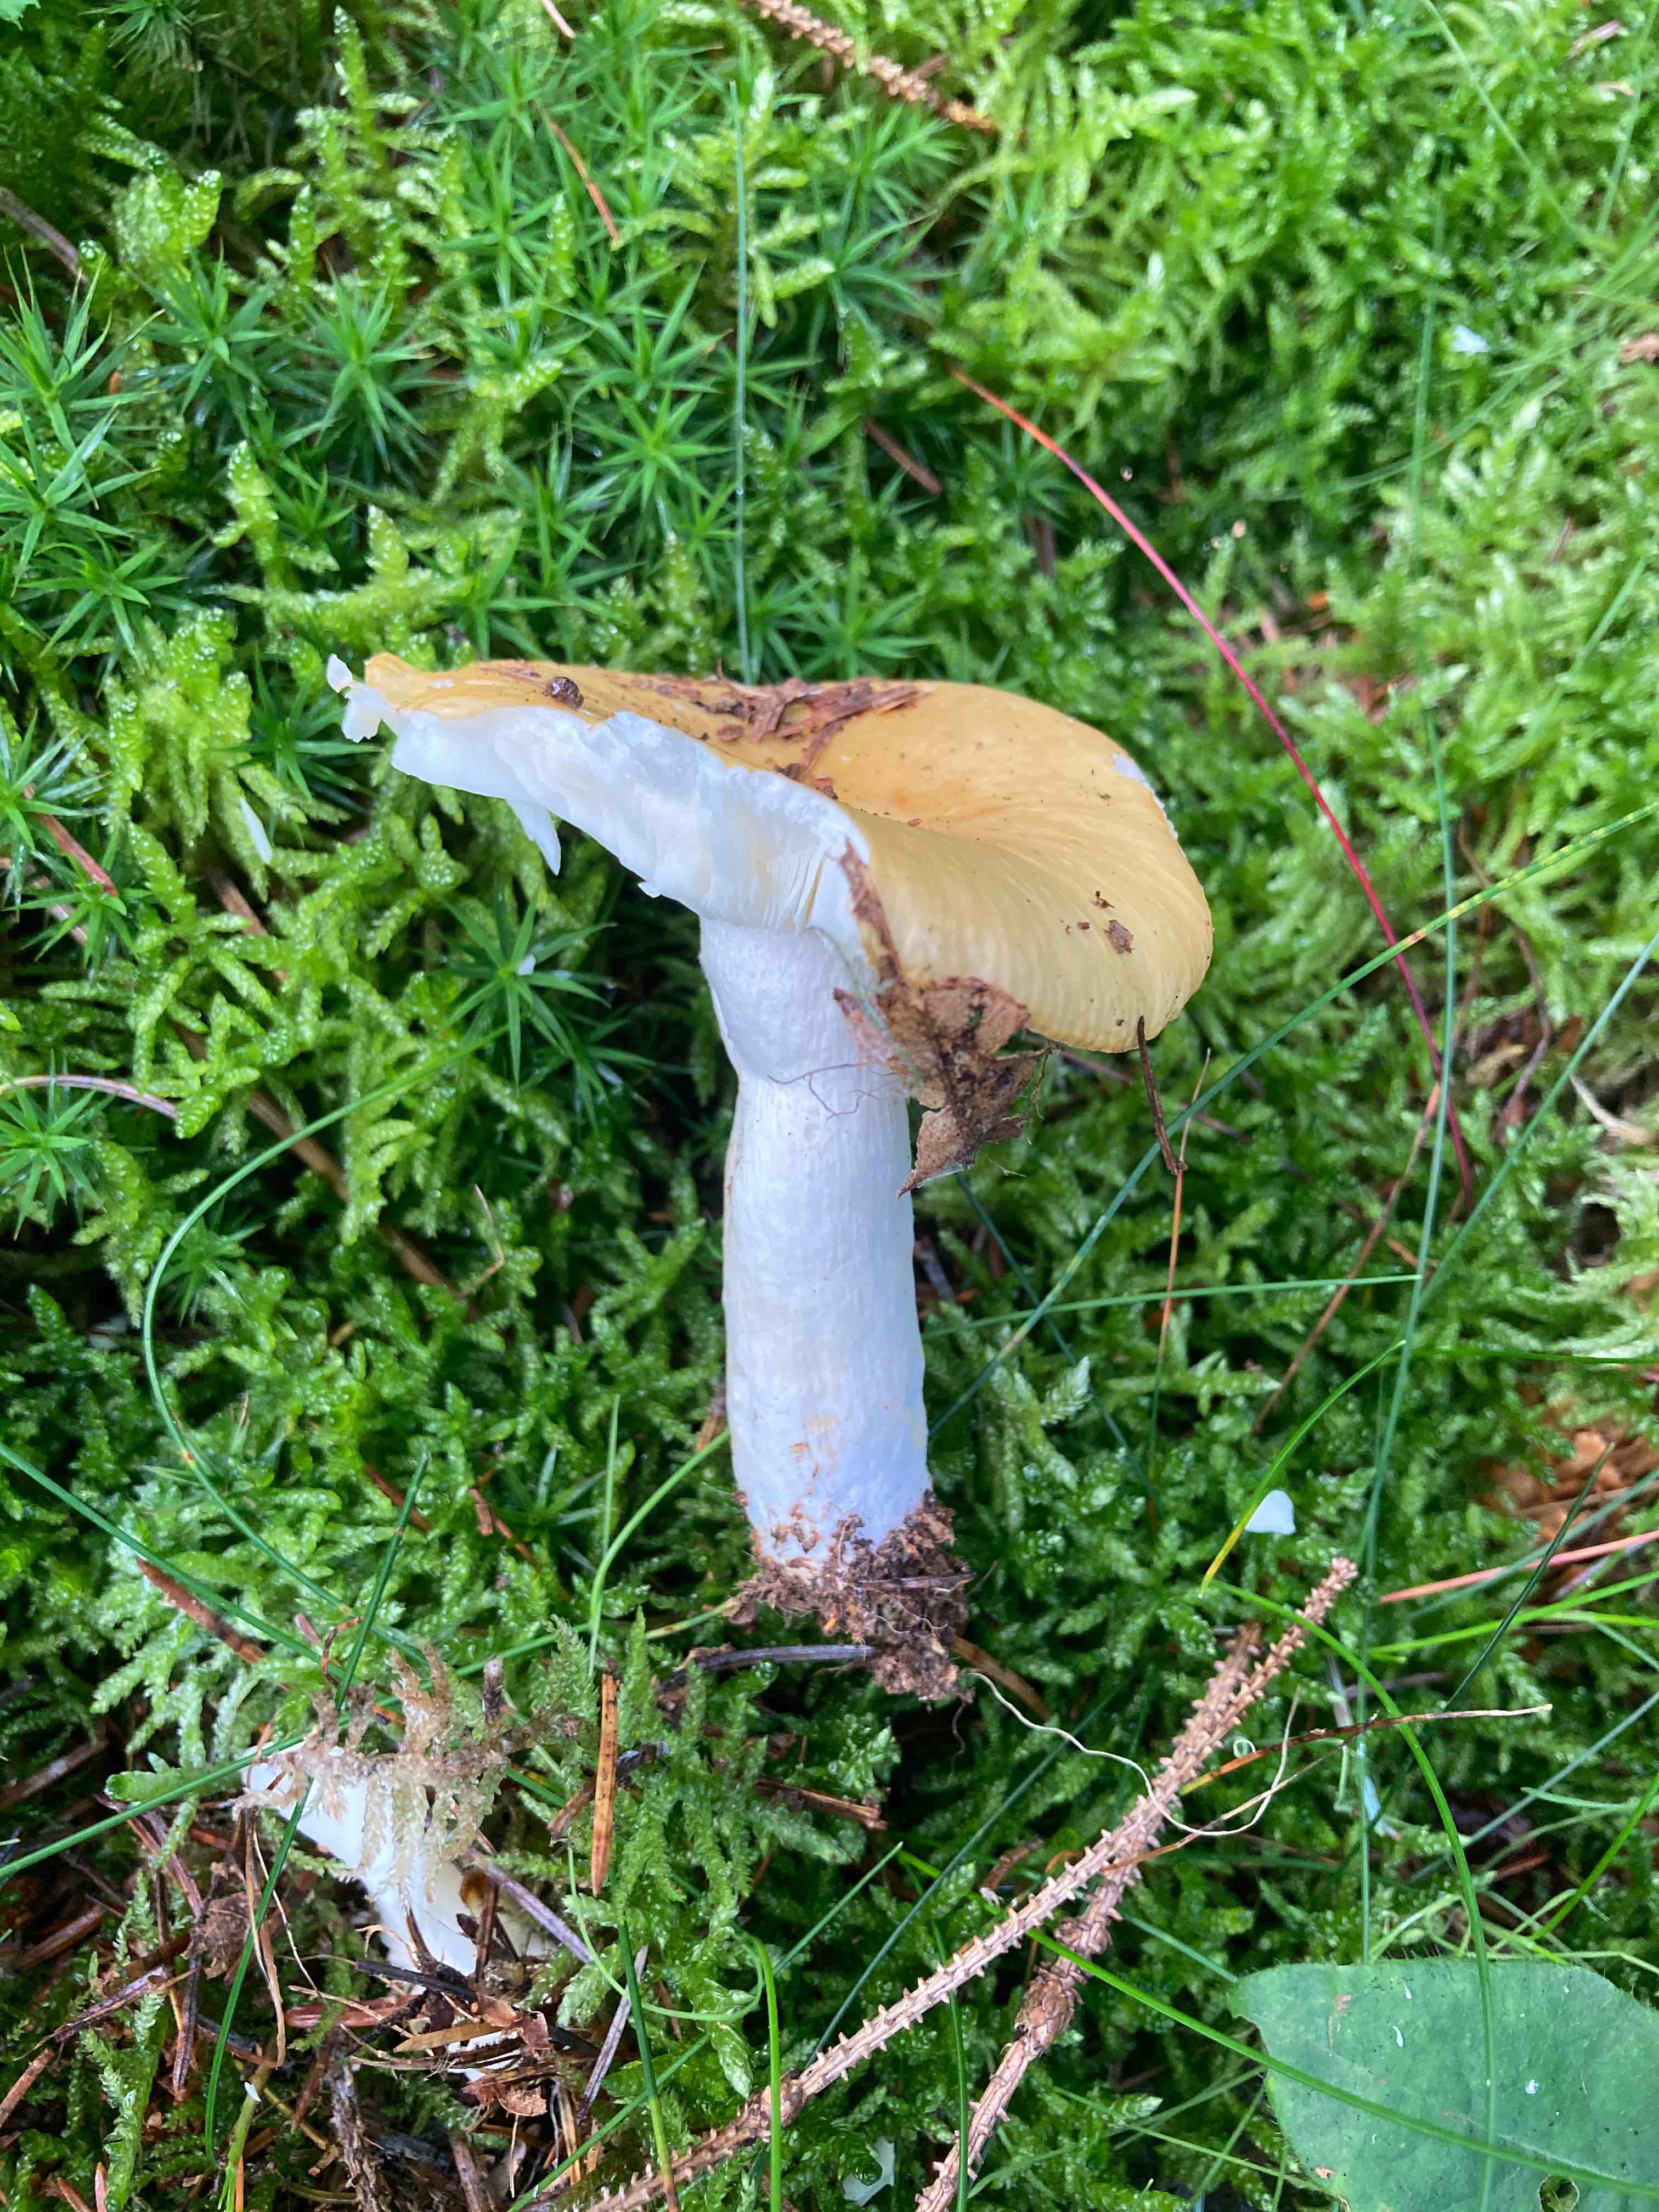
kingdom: Fungi
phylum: Basidiomycota
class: Agaricomycetes
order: Russulales
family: Russulaceae
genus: Russula
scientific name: Russula ochroleuca
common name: okkergul skørhat
